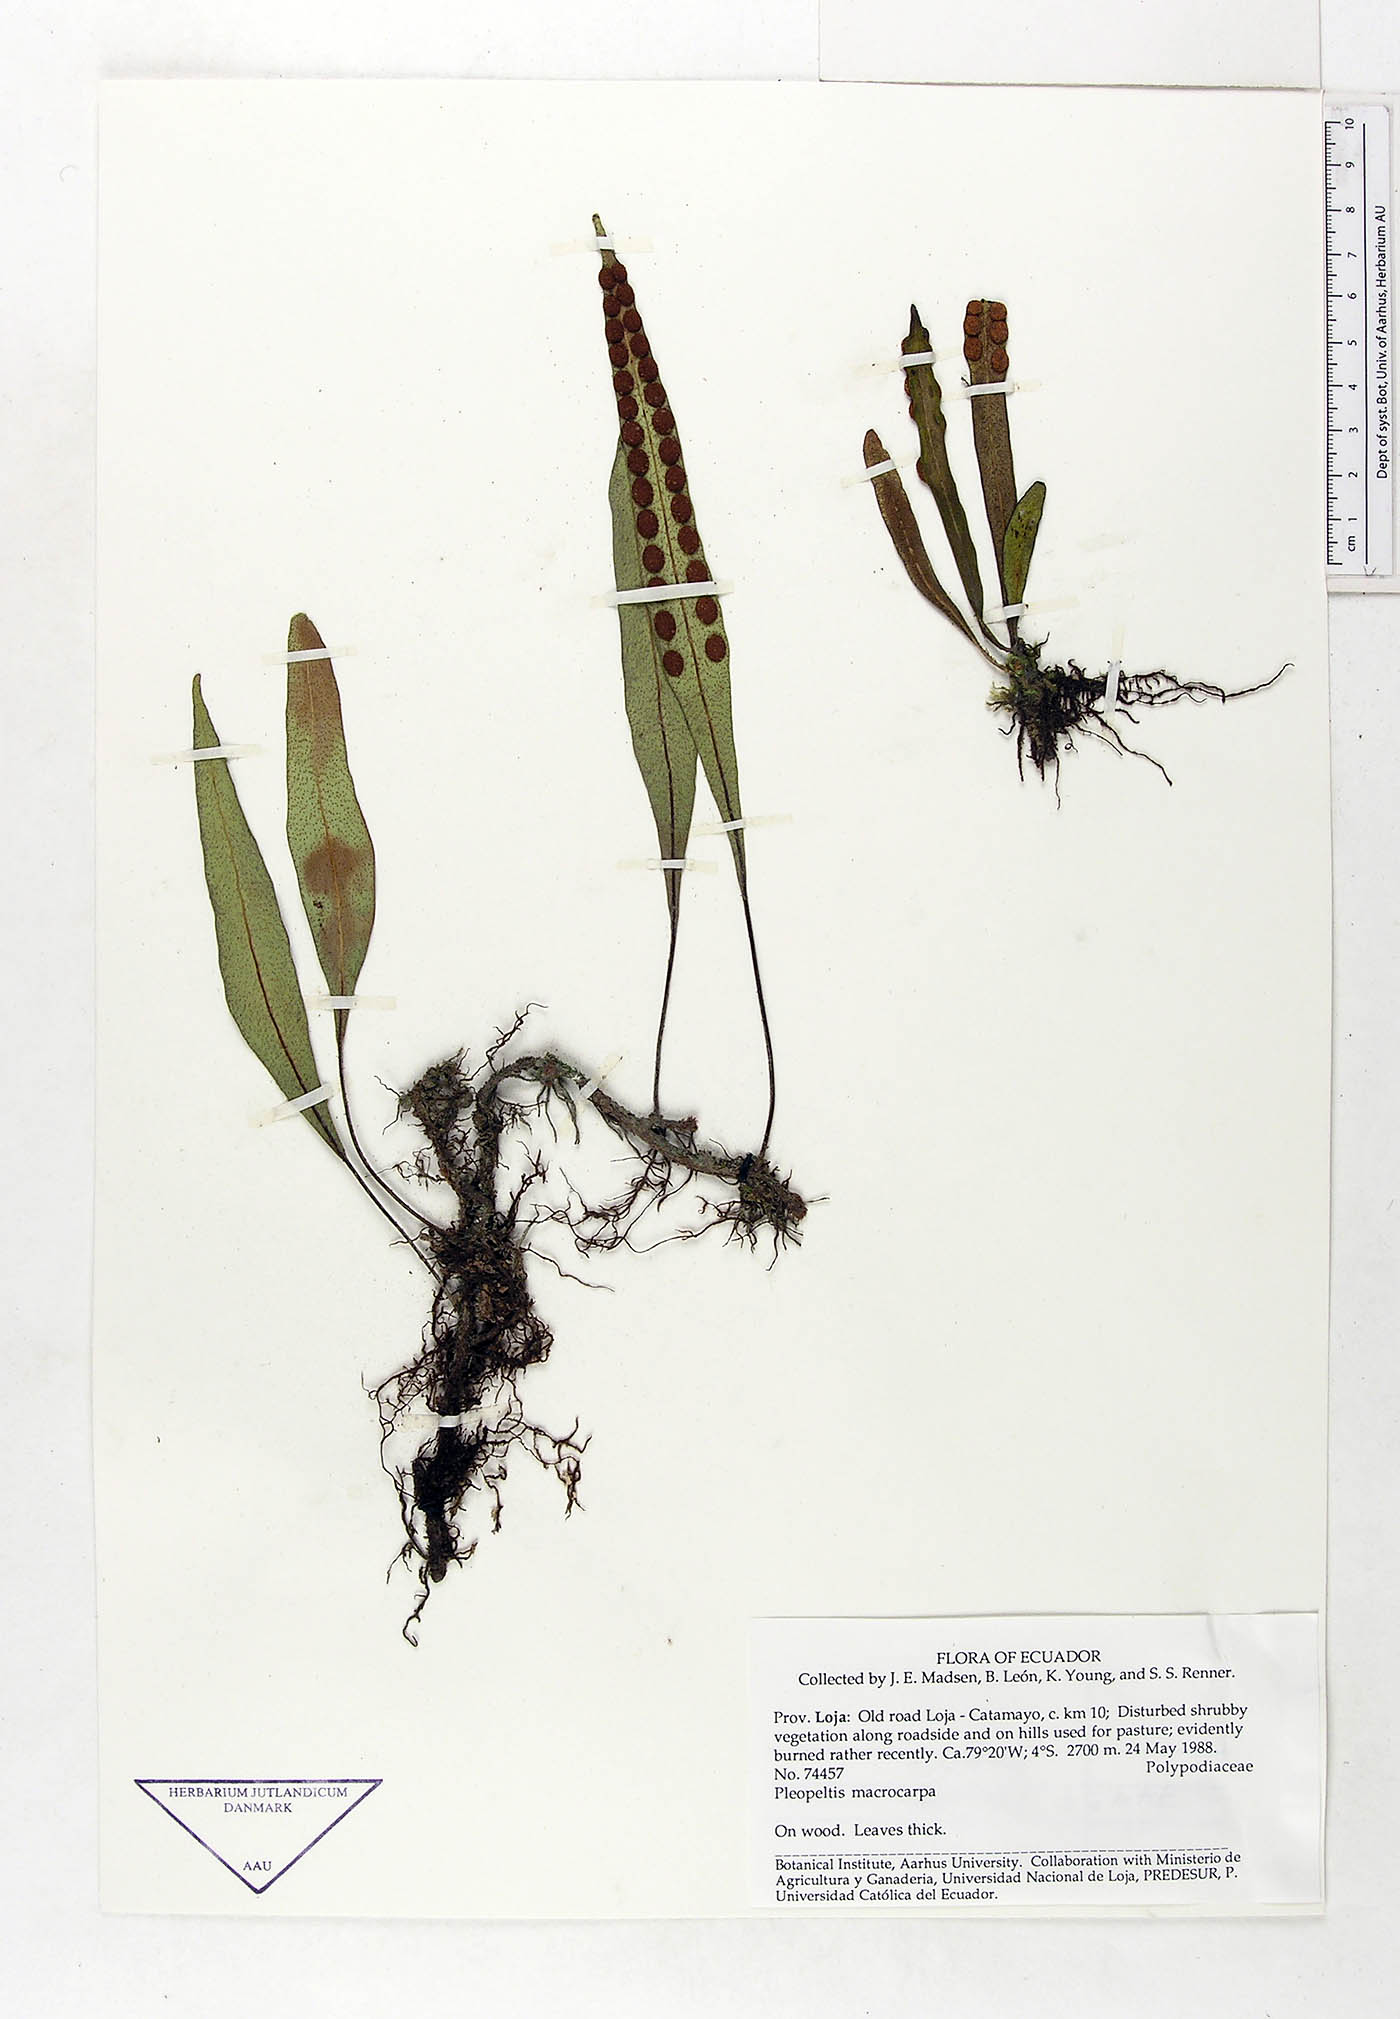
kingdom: Plantae
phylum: Tracheophyta
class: Polypodiopsida
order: Polypodiales
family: Polypodiaceae
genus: Pleopeltis
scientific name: Pleopeltis macrocarpa
